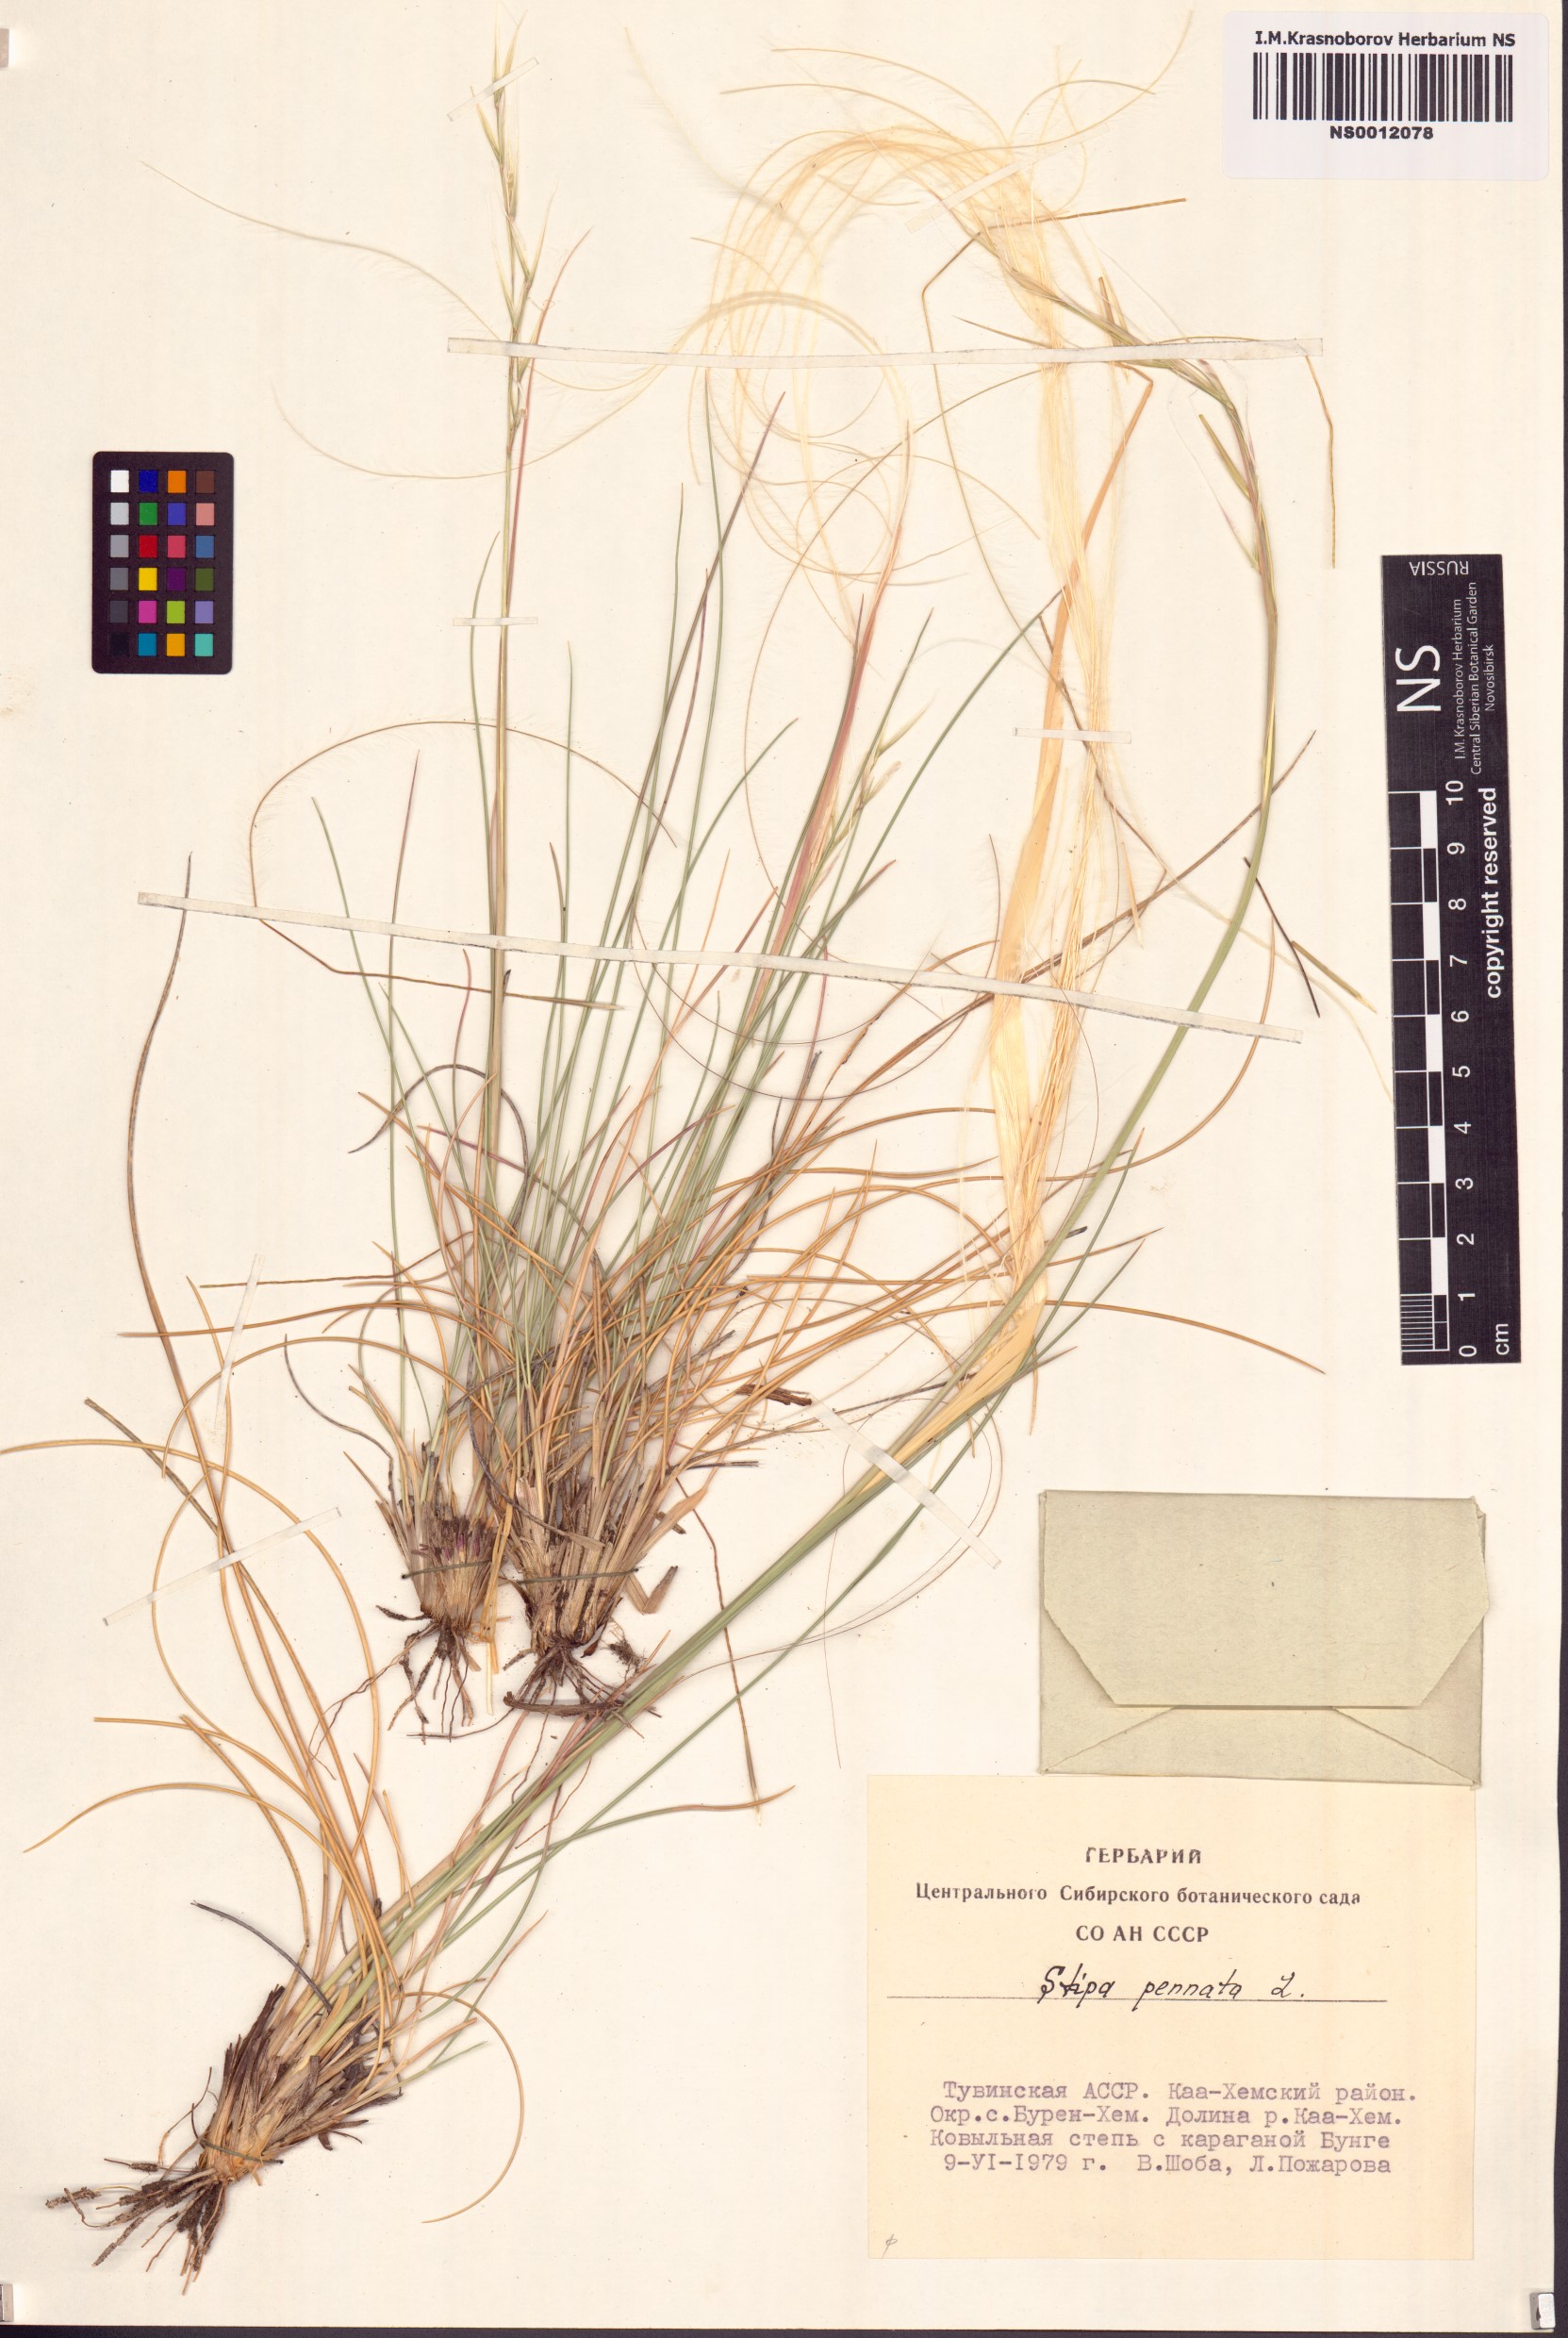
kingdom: Plantae
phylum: Tracheophyta
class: Liliopsida
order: Poales
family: Poaceae
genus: Stipa
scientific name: Stipa pennata
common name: European feather grass
